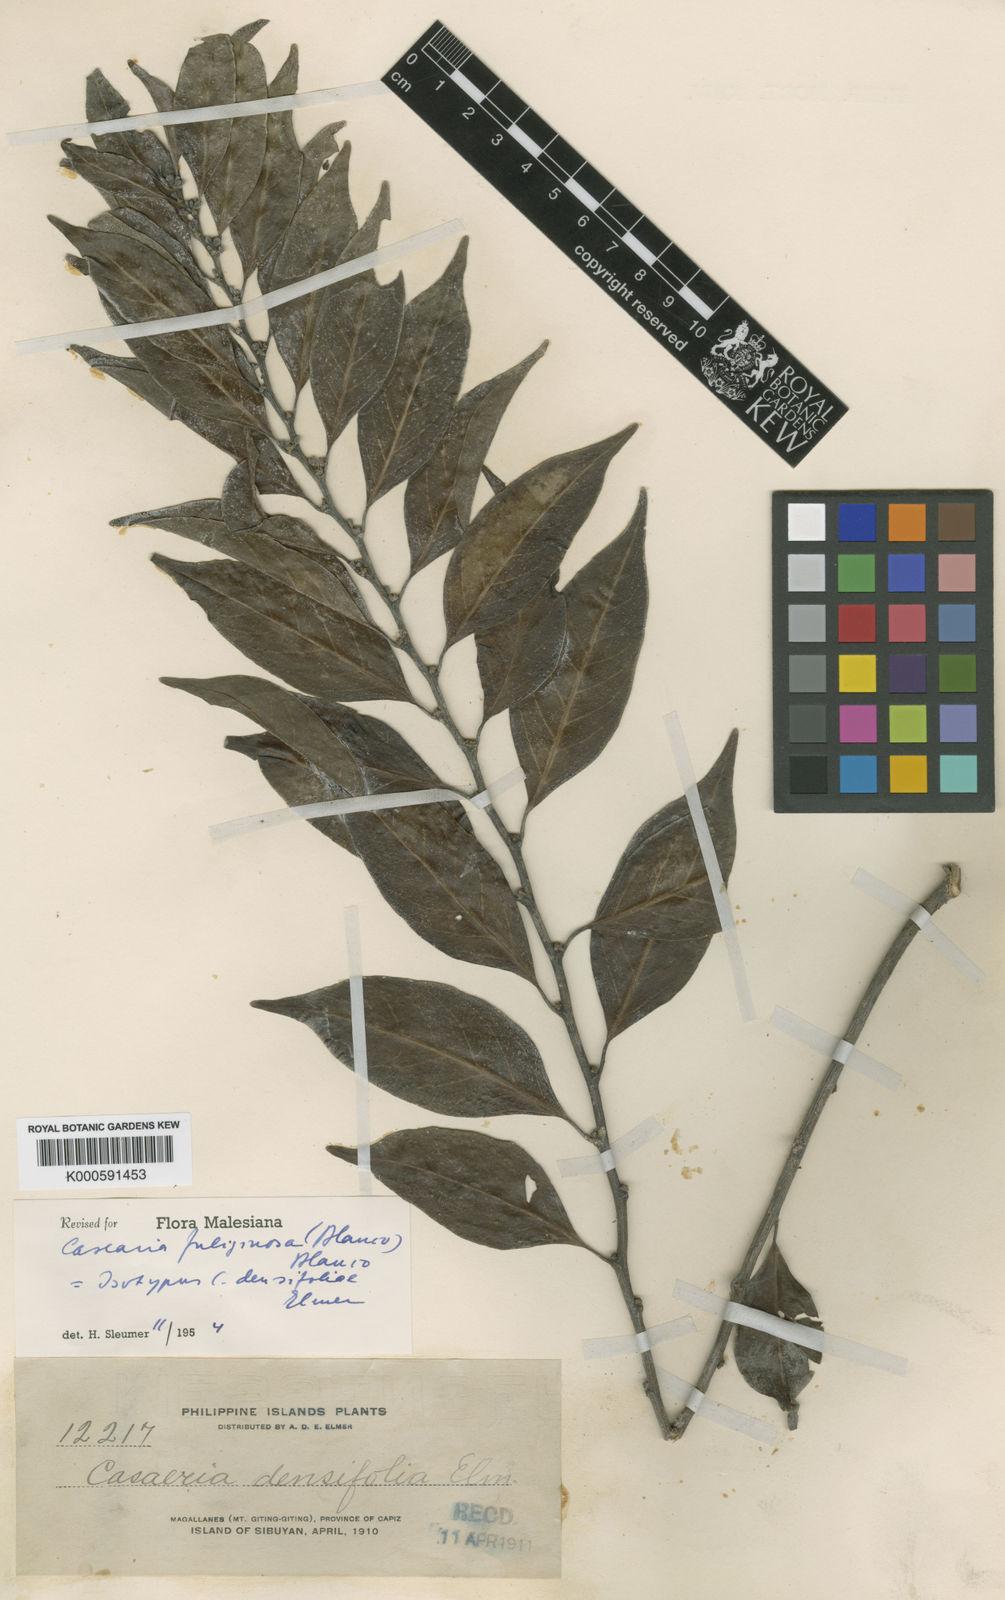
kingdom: Plantae
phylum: Tracheophyta
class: Magnoliopsida
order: Malpighiales
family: Salicaceae
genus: Casearia
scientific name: Casearia fuliginosa
